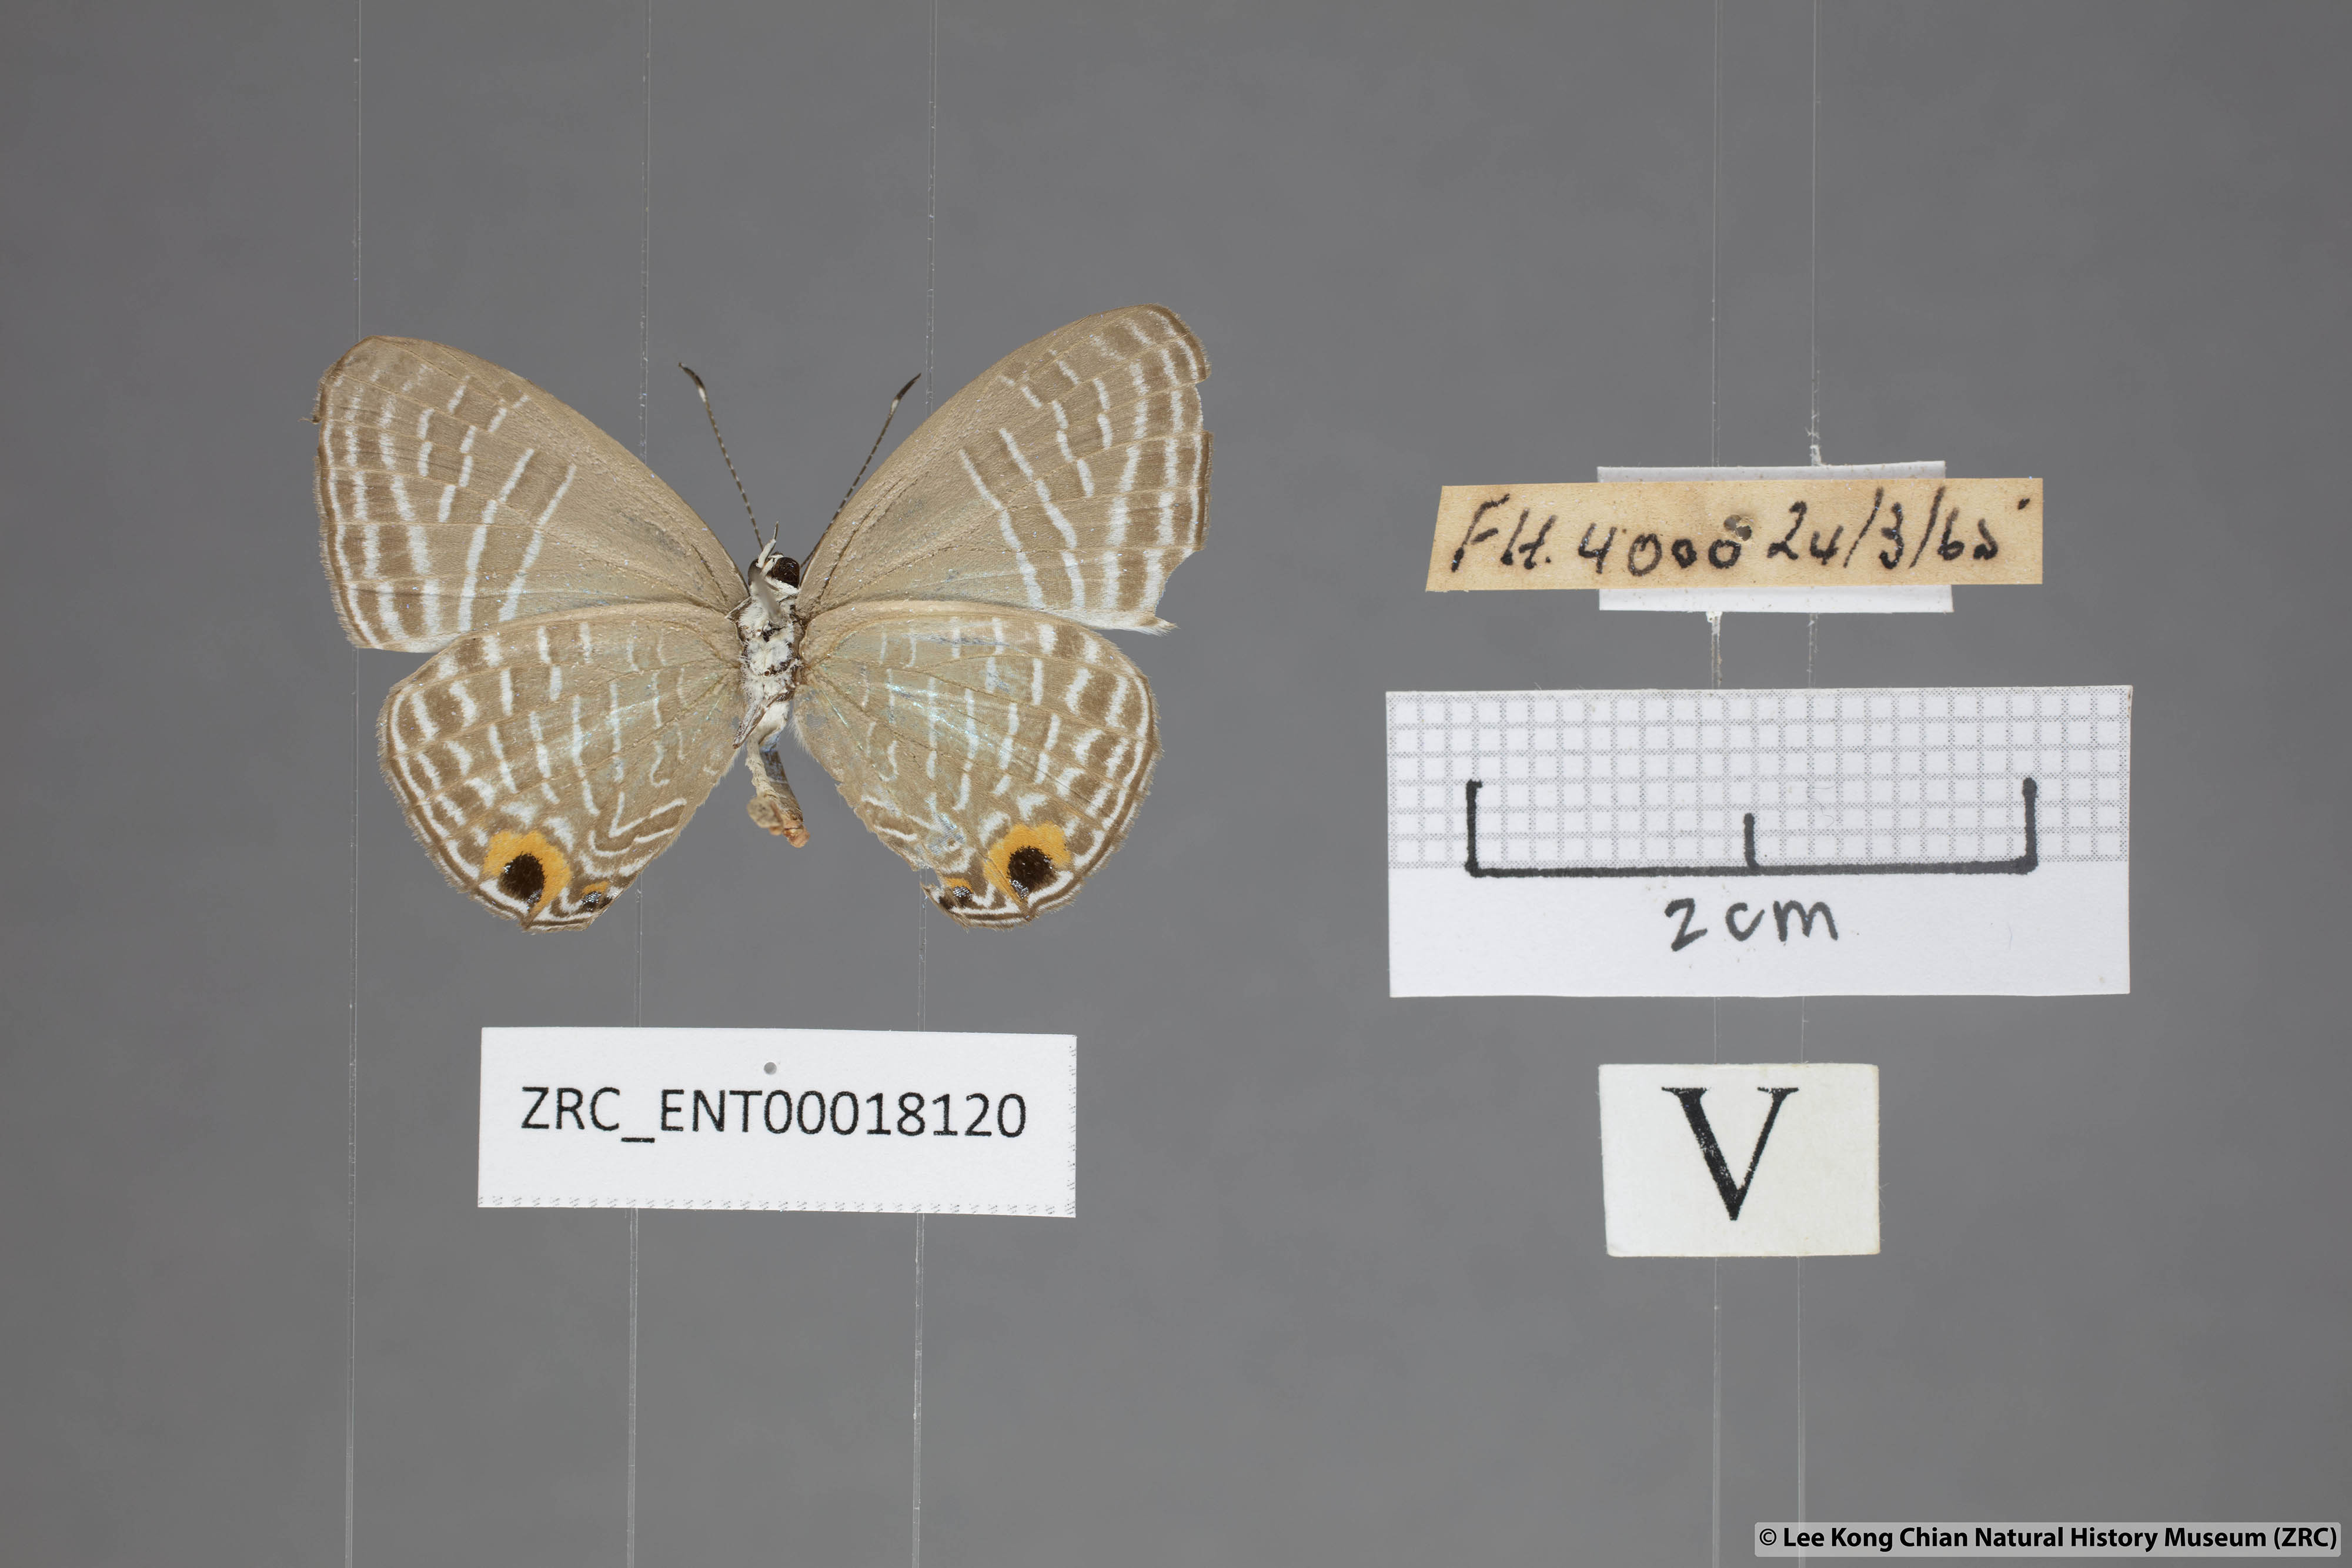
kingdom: Animalia
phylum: Arthropoda
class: Insecta
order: Lepidoptera
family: Lycaenidae
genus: Jamides
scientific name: Jamides elpis
